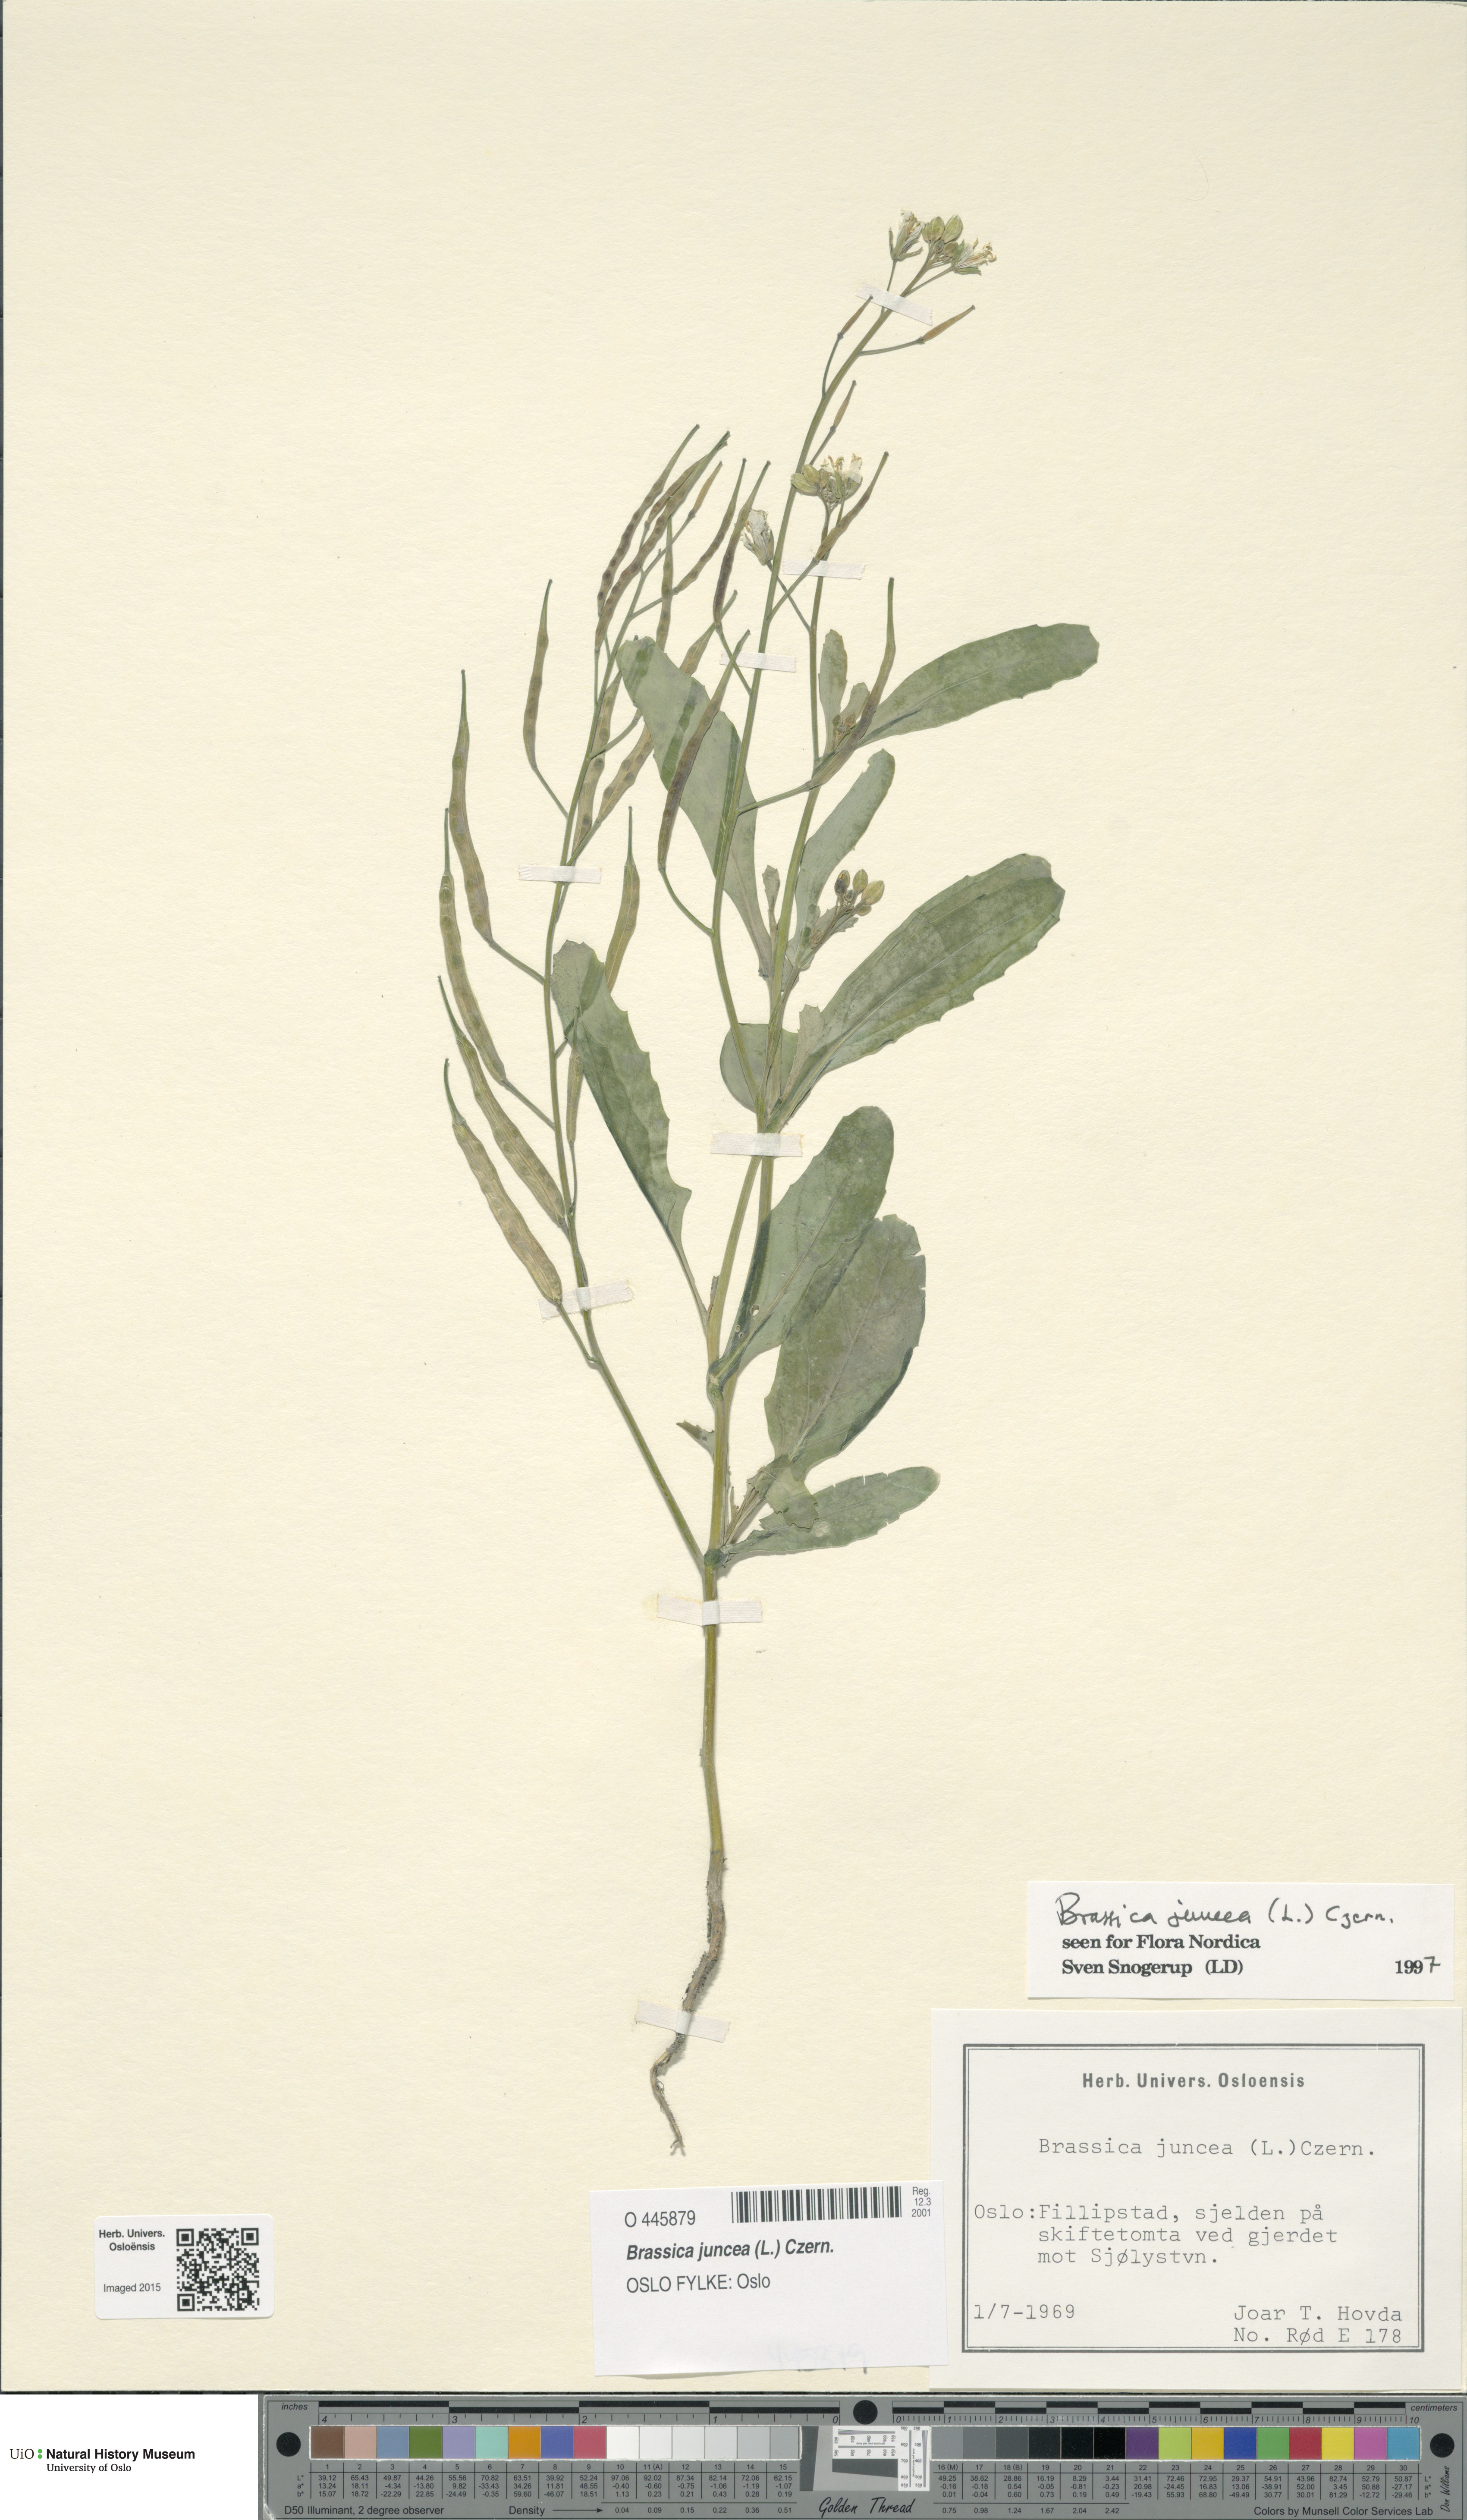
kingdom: Plantae
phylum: Tracheophyta
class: Magnoliopsida
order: Brassicales
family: Brassicaceae
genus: Brassica
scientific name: Brassica juncea
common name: Brown mustard
